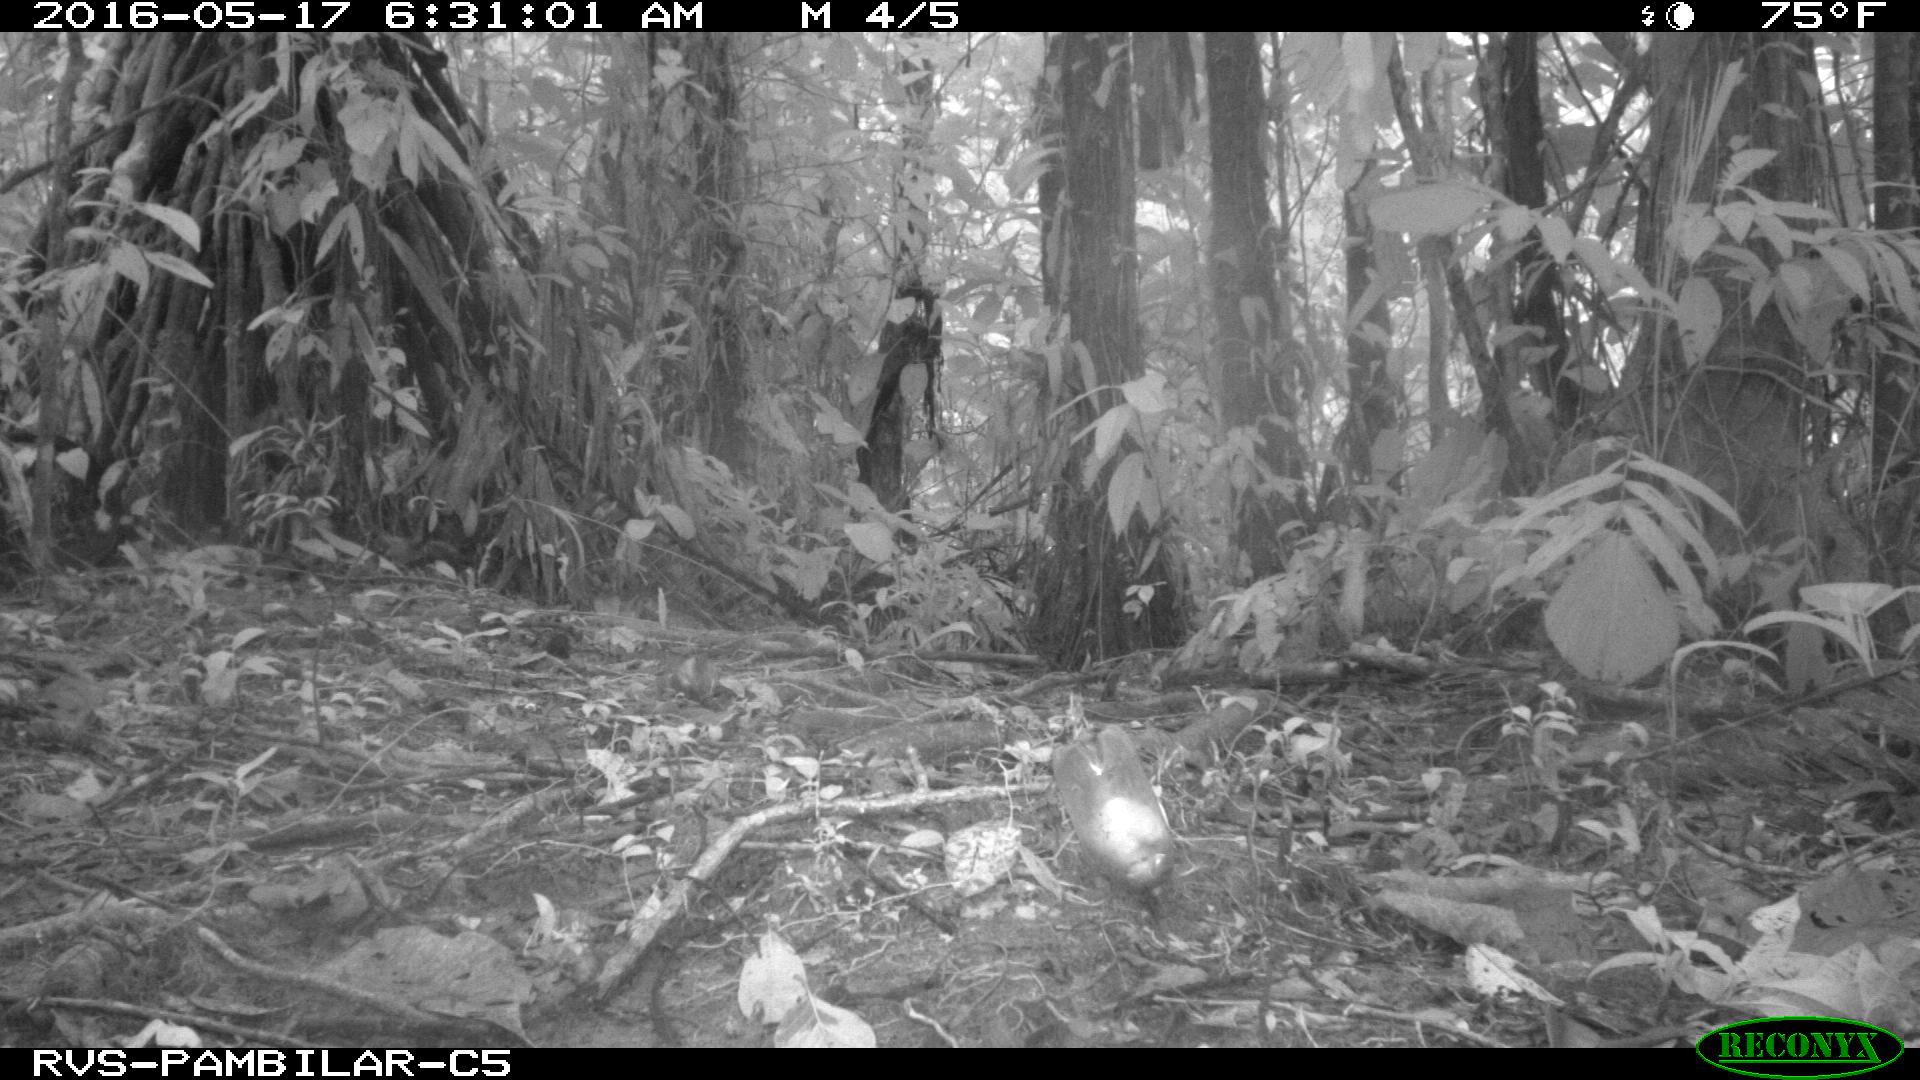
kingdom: Animalia
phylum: Chordata
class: Mammalia
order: Rodentia
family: Dasyproctidae
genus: Dasyprocta
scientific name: Dasyprocta punctata
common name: Central american agouti
